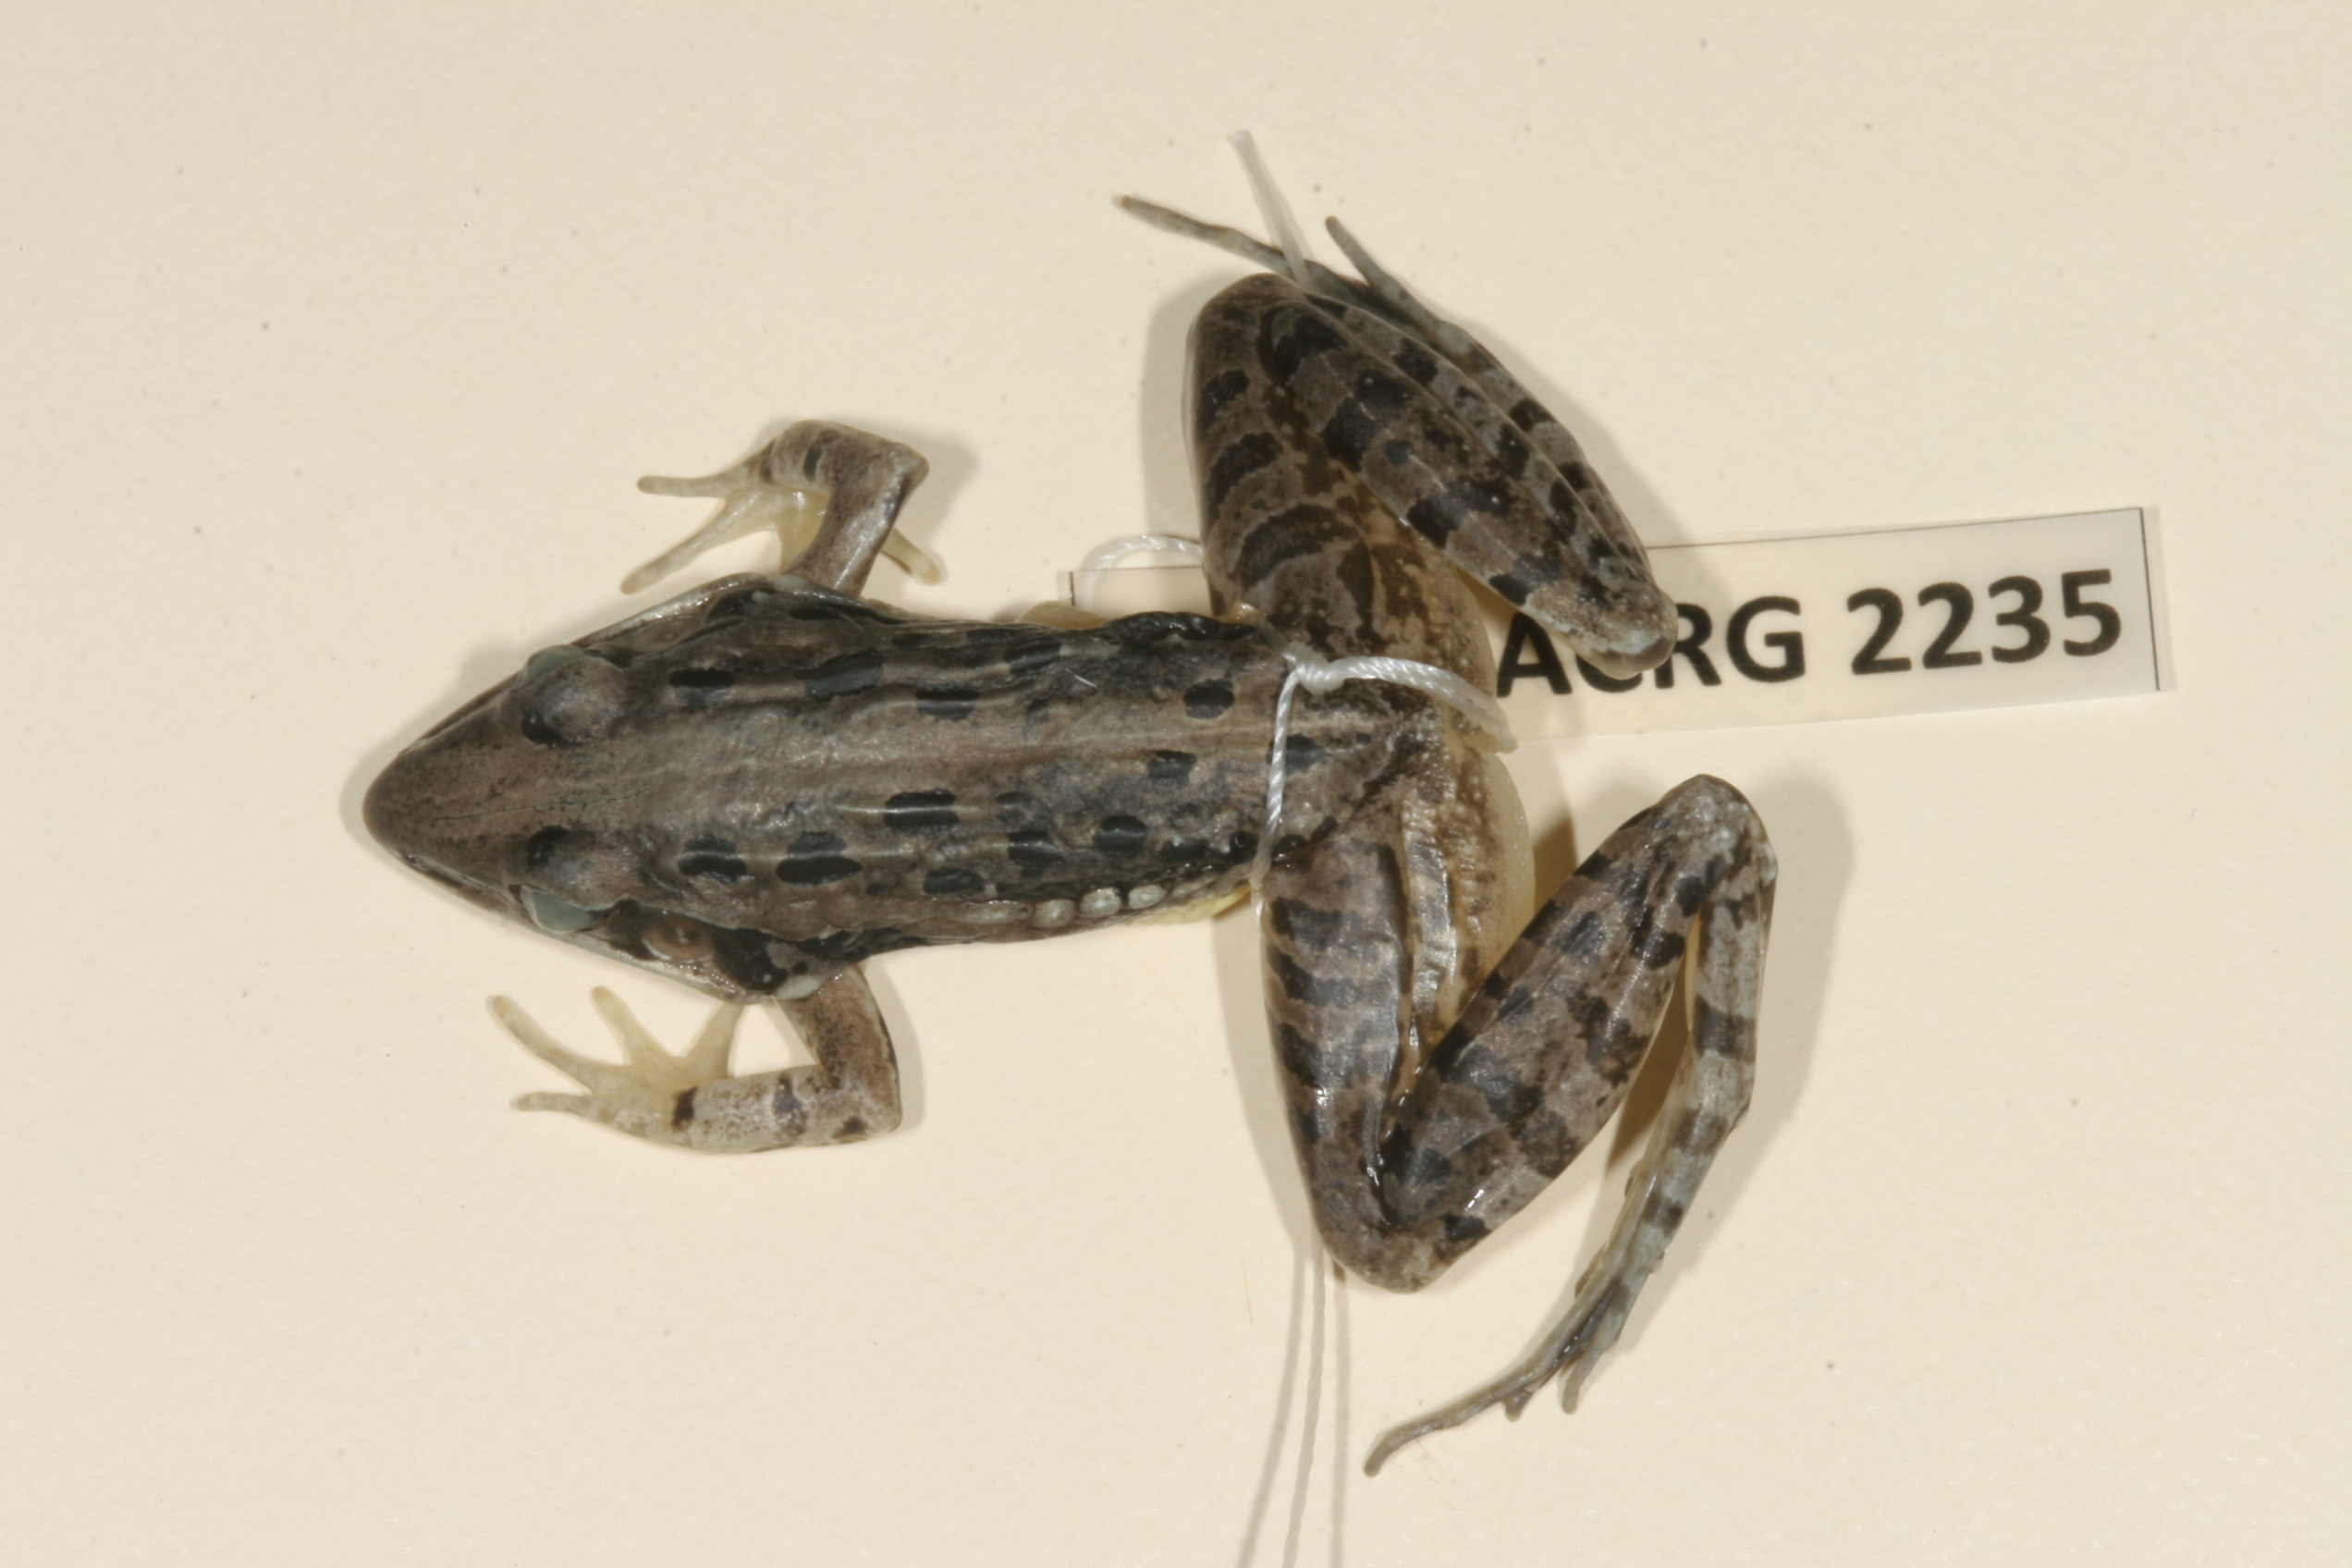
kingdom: Animalia
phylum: Chordata
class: Amphibia
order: Anura
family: Ptychadenidae
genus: Ptychadena
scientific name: Ptychadena mossambica
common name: Mozambique ridged frog
